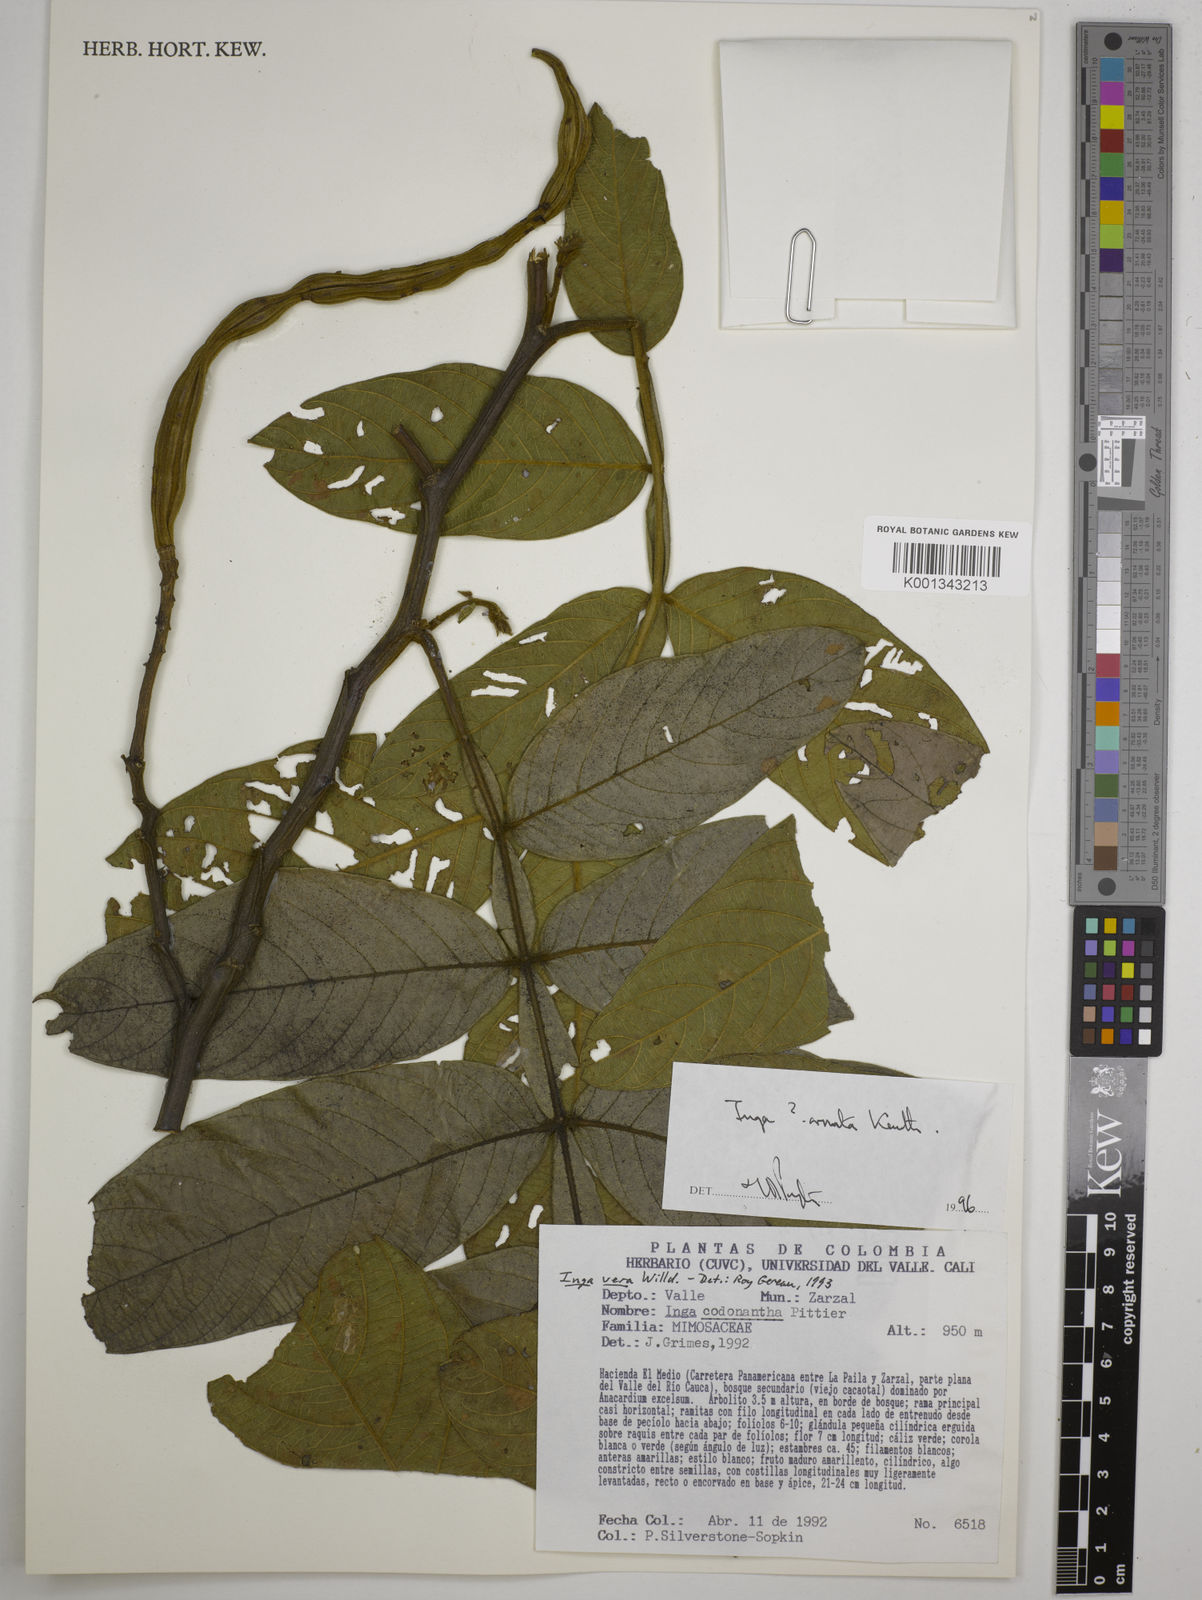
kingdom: Plantae
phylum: Tracheophyta
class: Magnoliopsida
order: Fabales
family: Fabaceae
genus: Inga
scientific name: Inga ornata
